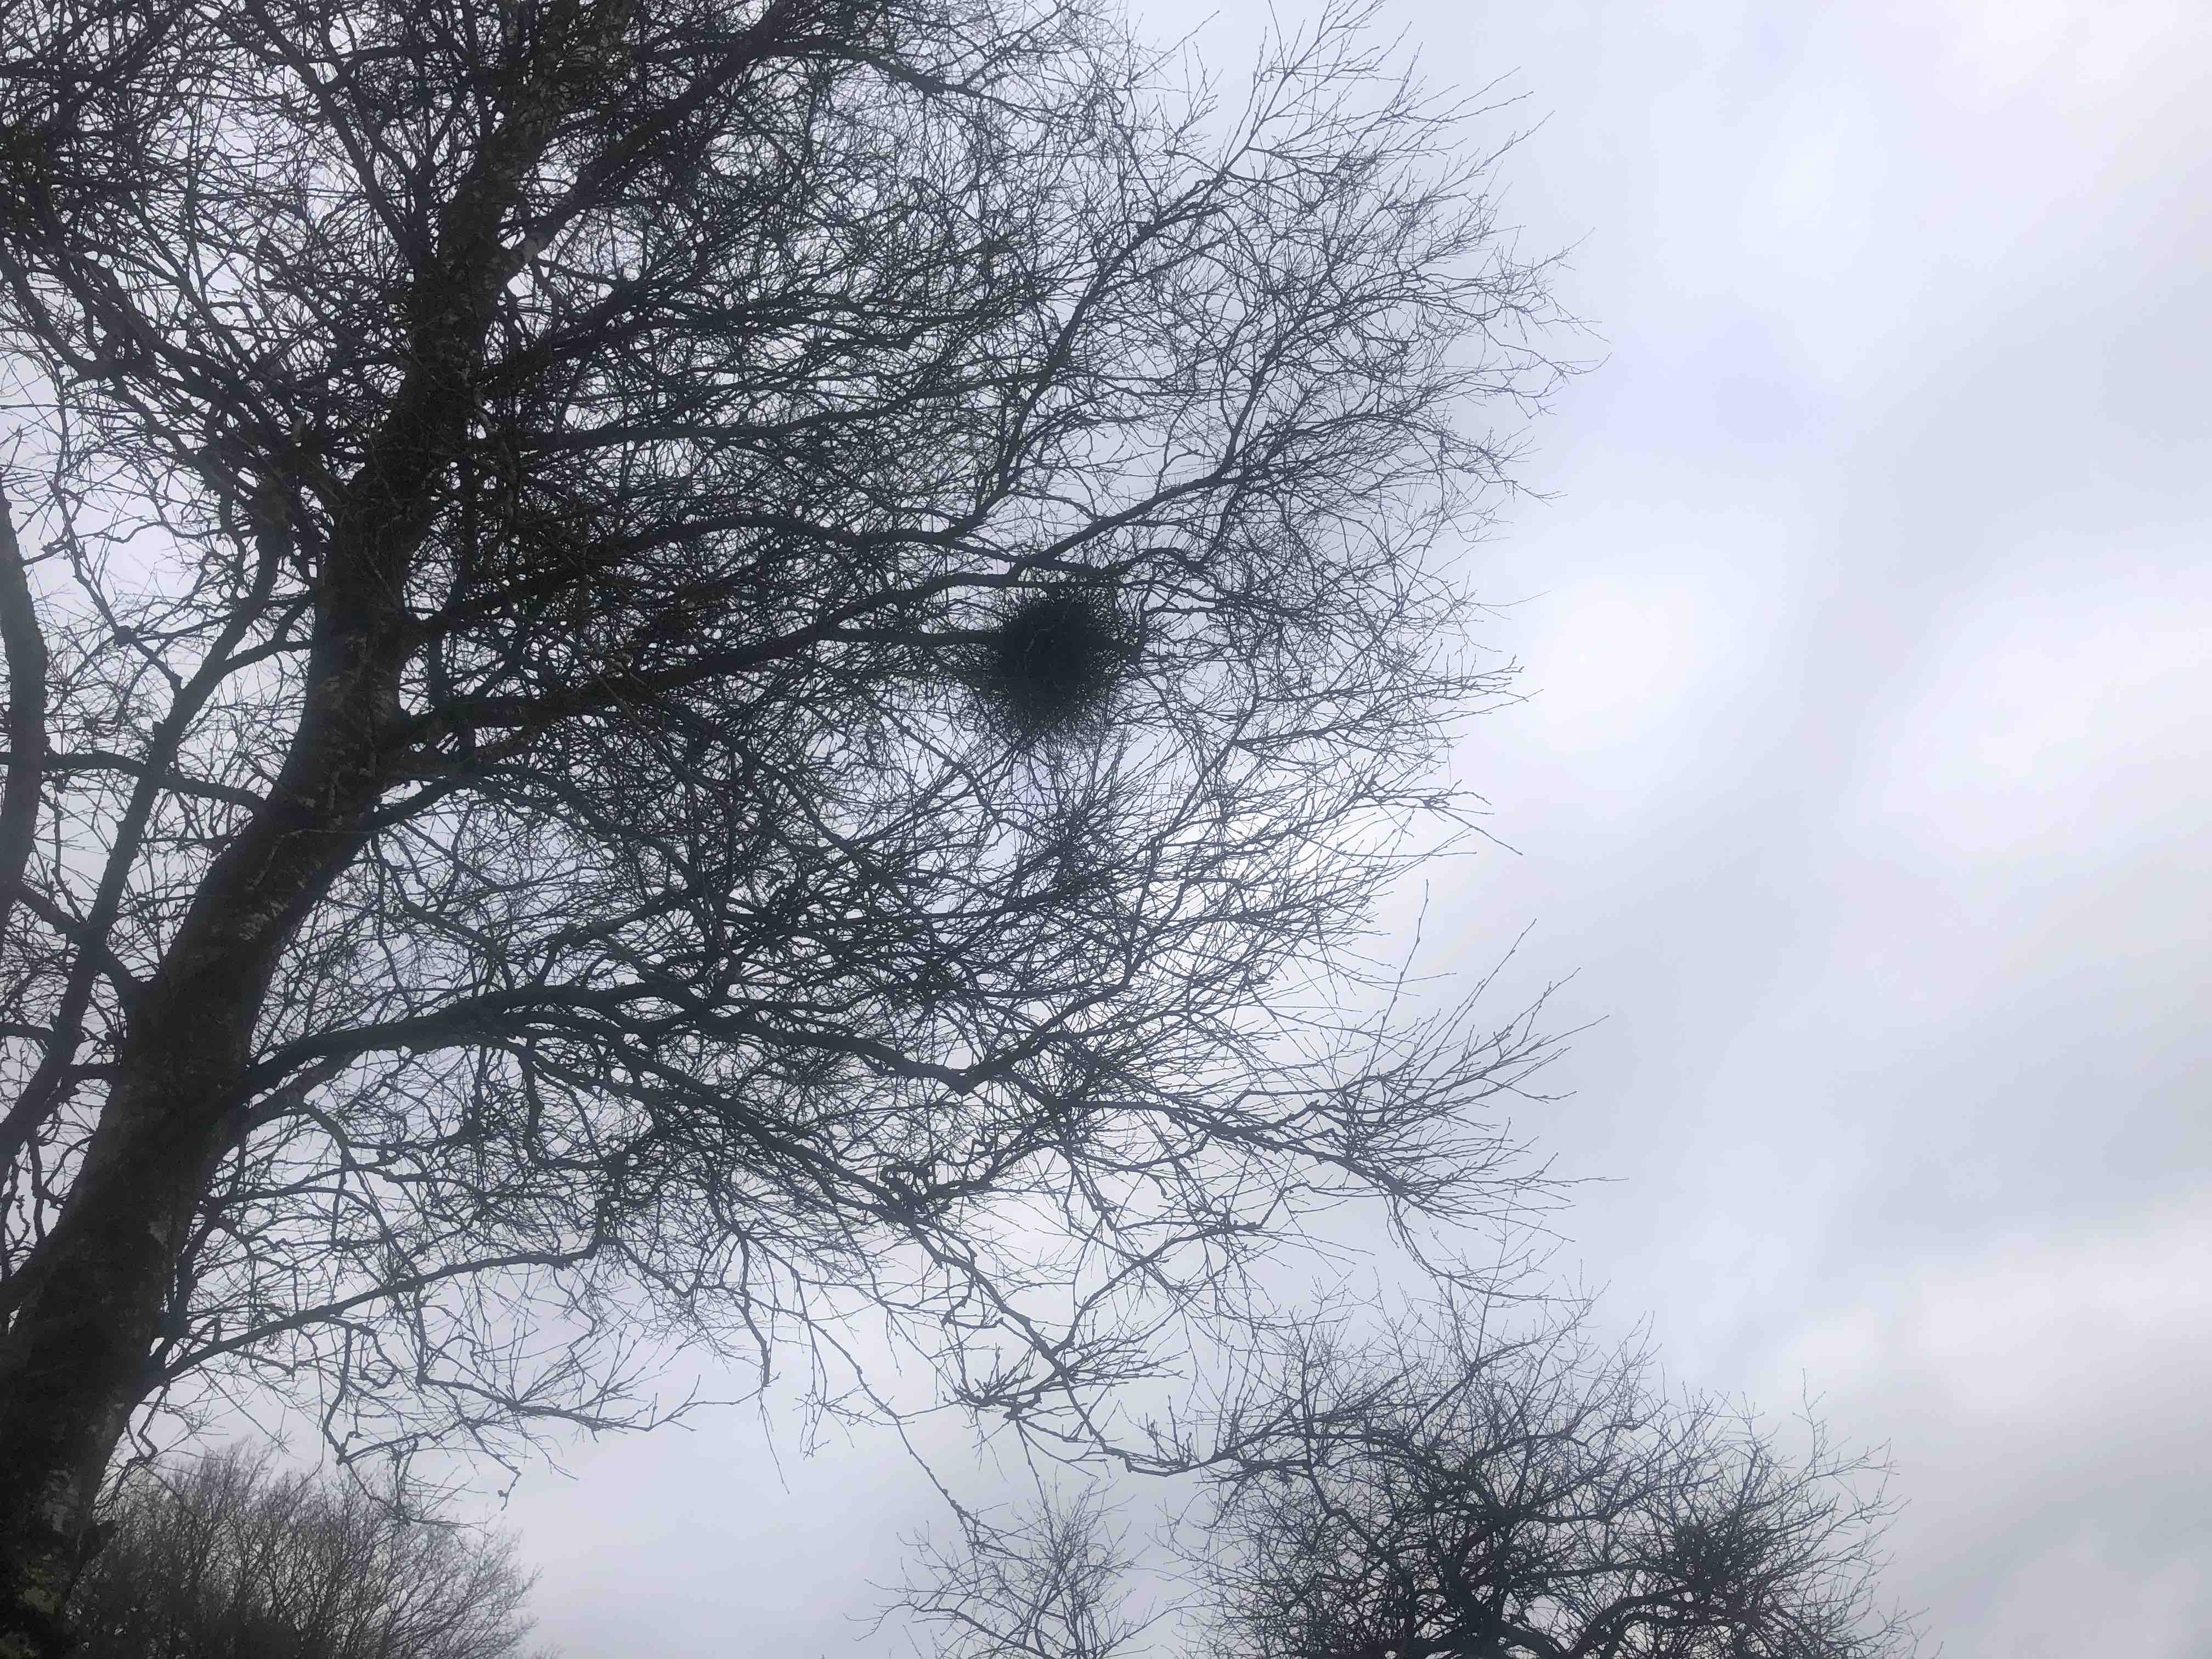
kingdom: Fungi
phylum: Ascomycota
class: Taphrinomycetes
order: Taphrinales
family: Taphrinaceae
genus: Taphrina
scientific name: Taphrina betulina
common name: hekse-sækdug
